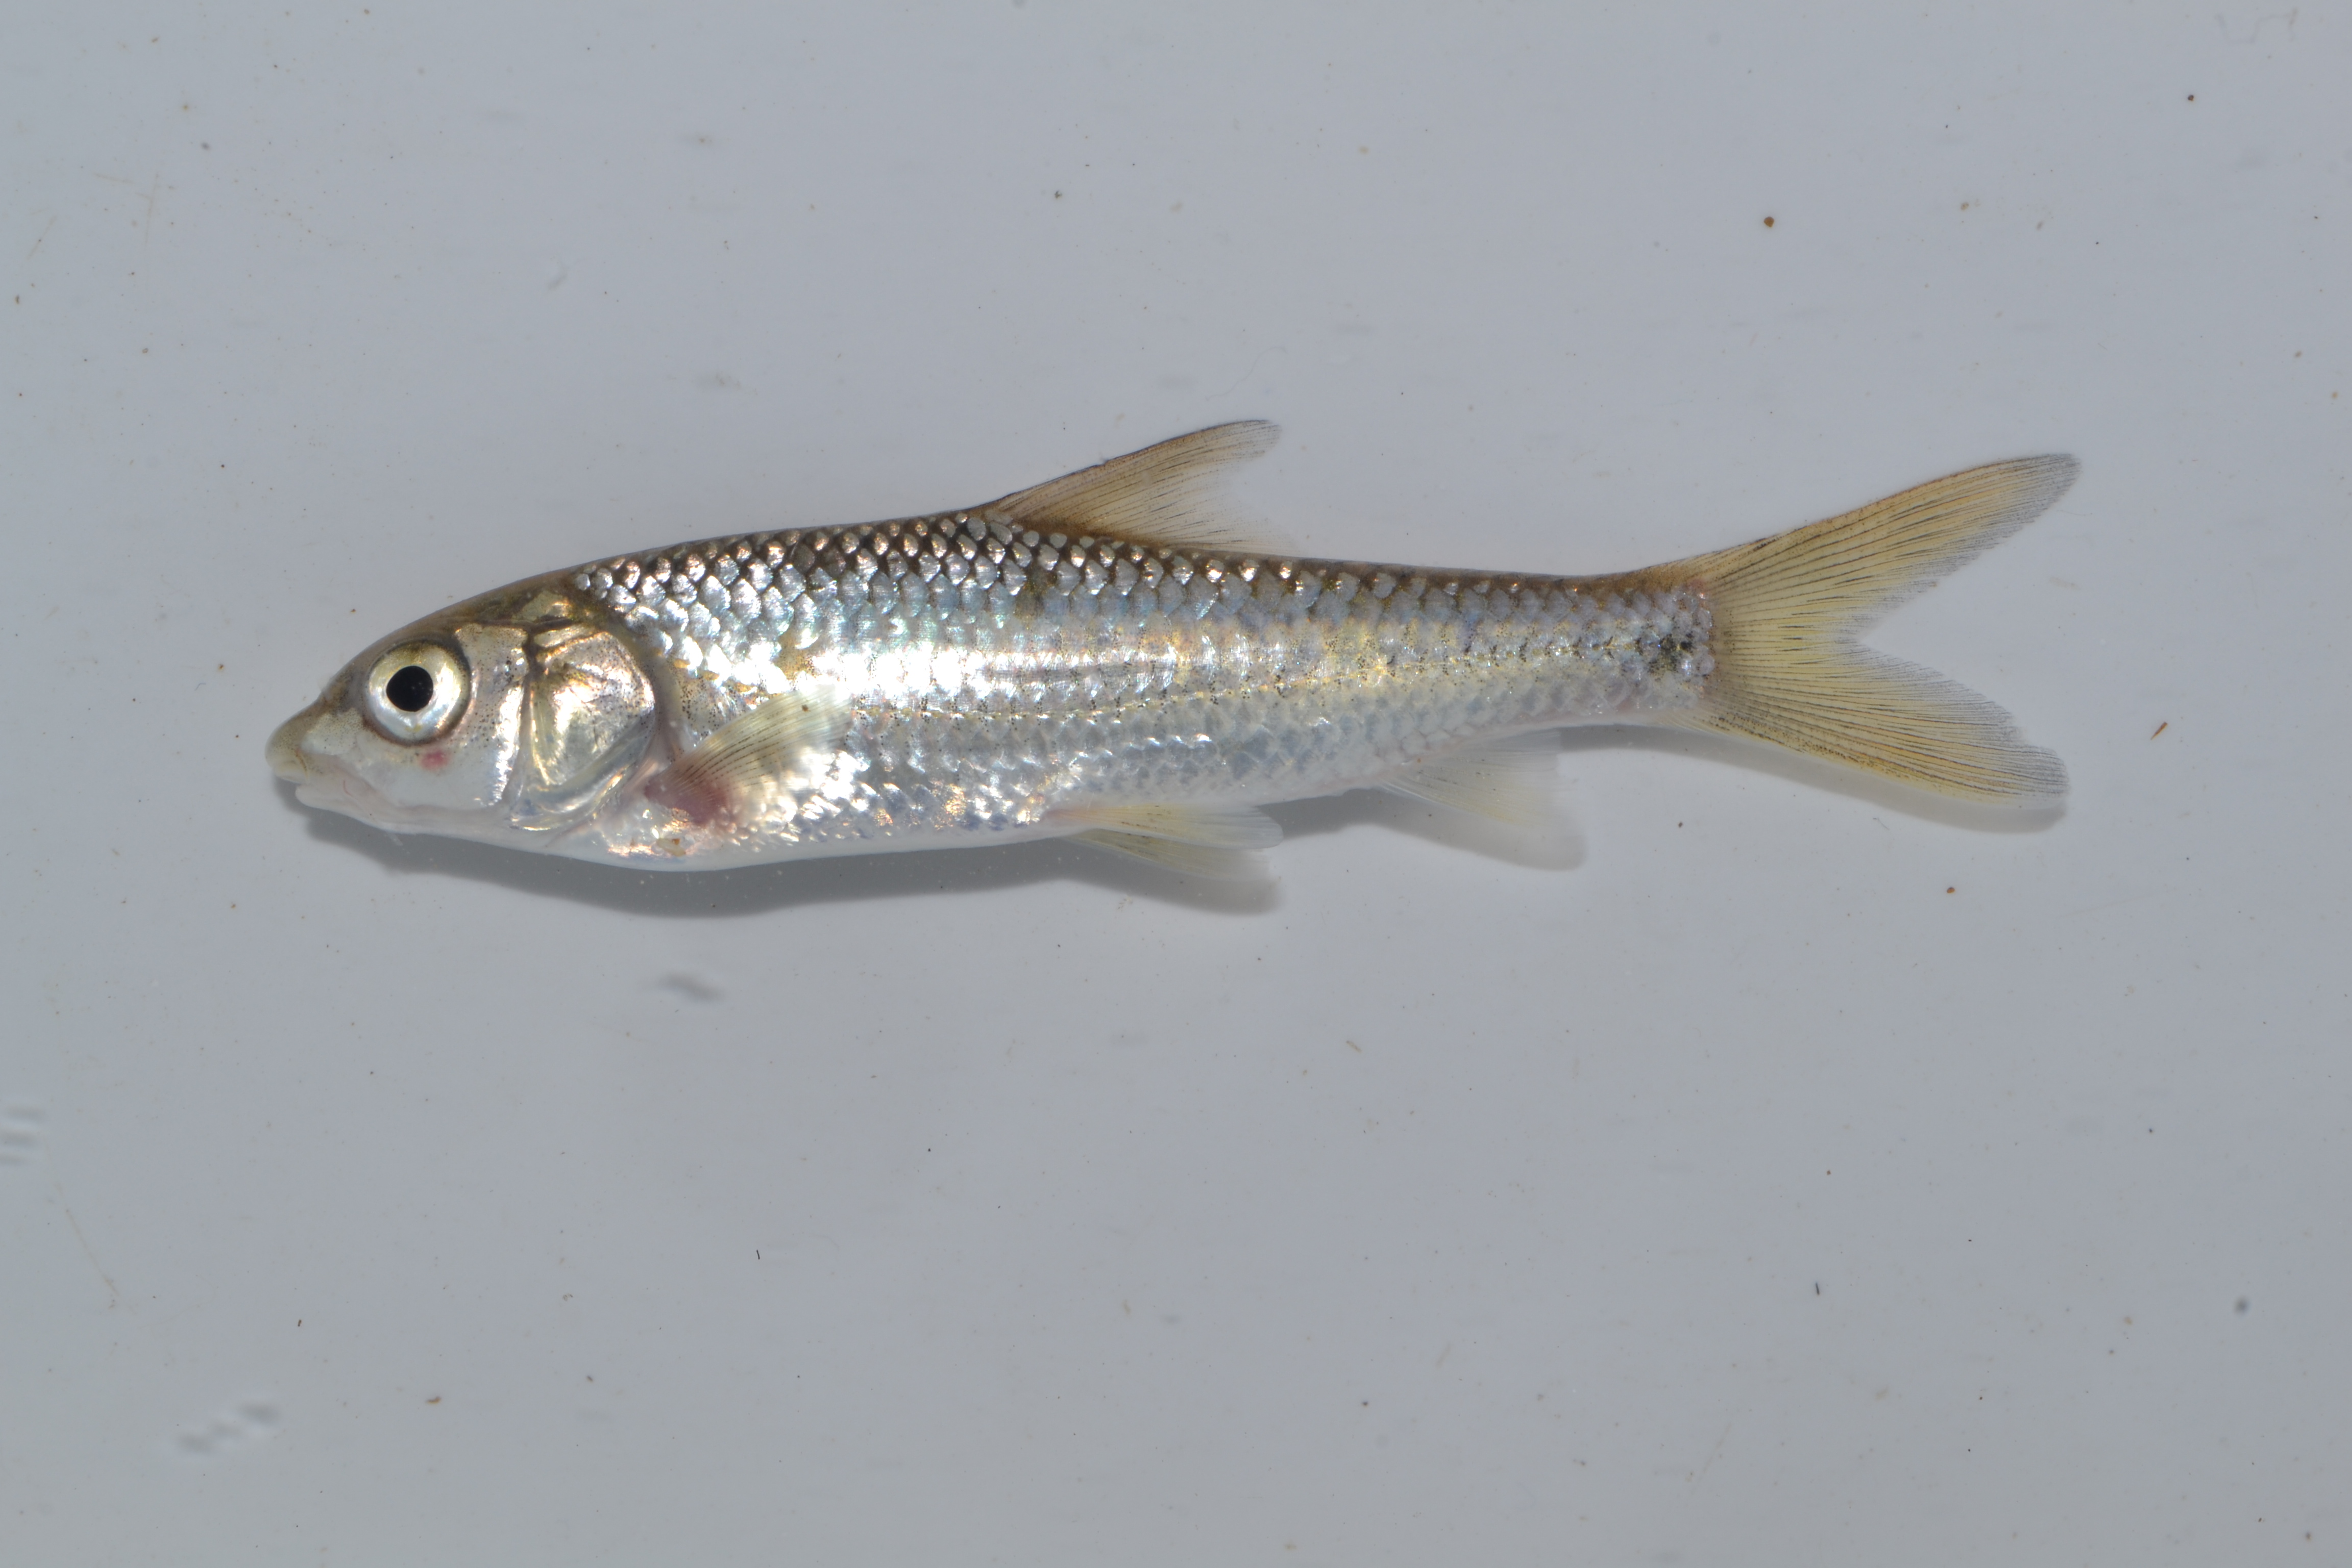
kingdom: Animalia
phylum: Chordata
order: Cypriniformes
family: Cyprinidae
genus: Labeobarbus
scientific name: Labeobarbus natalensis
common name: Scaly
